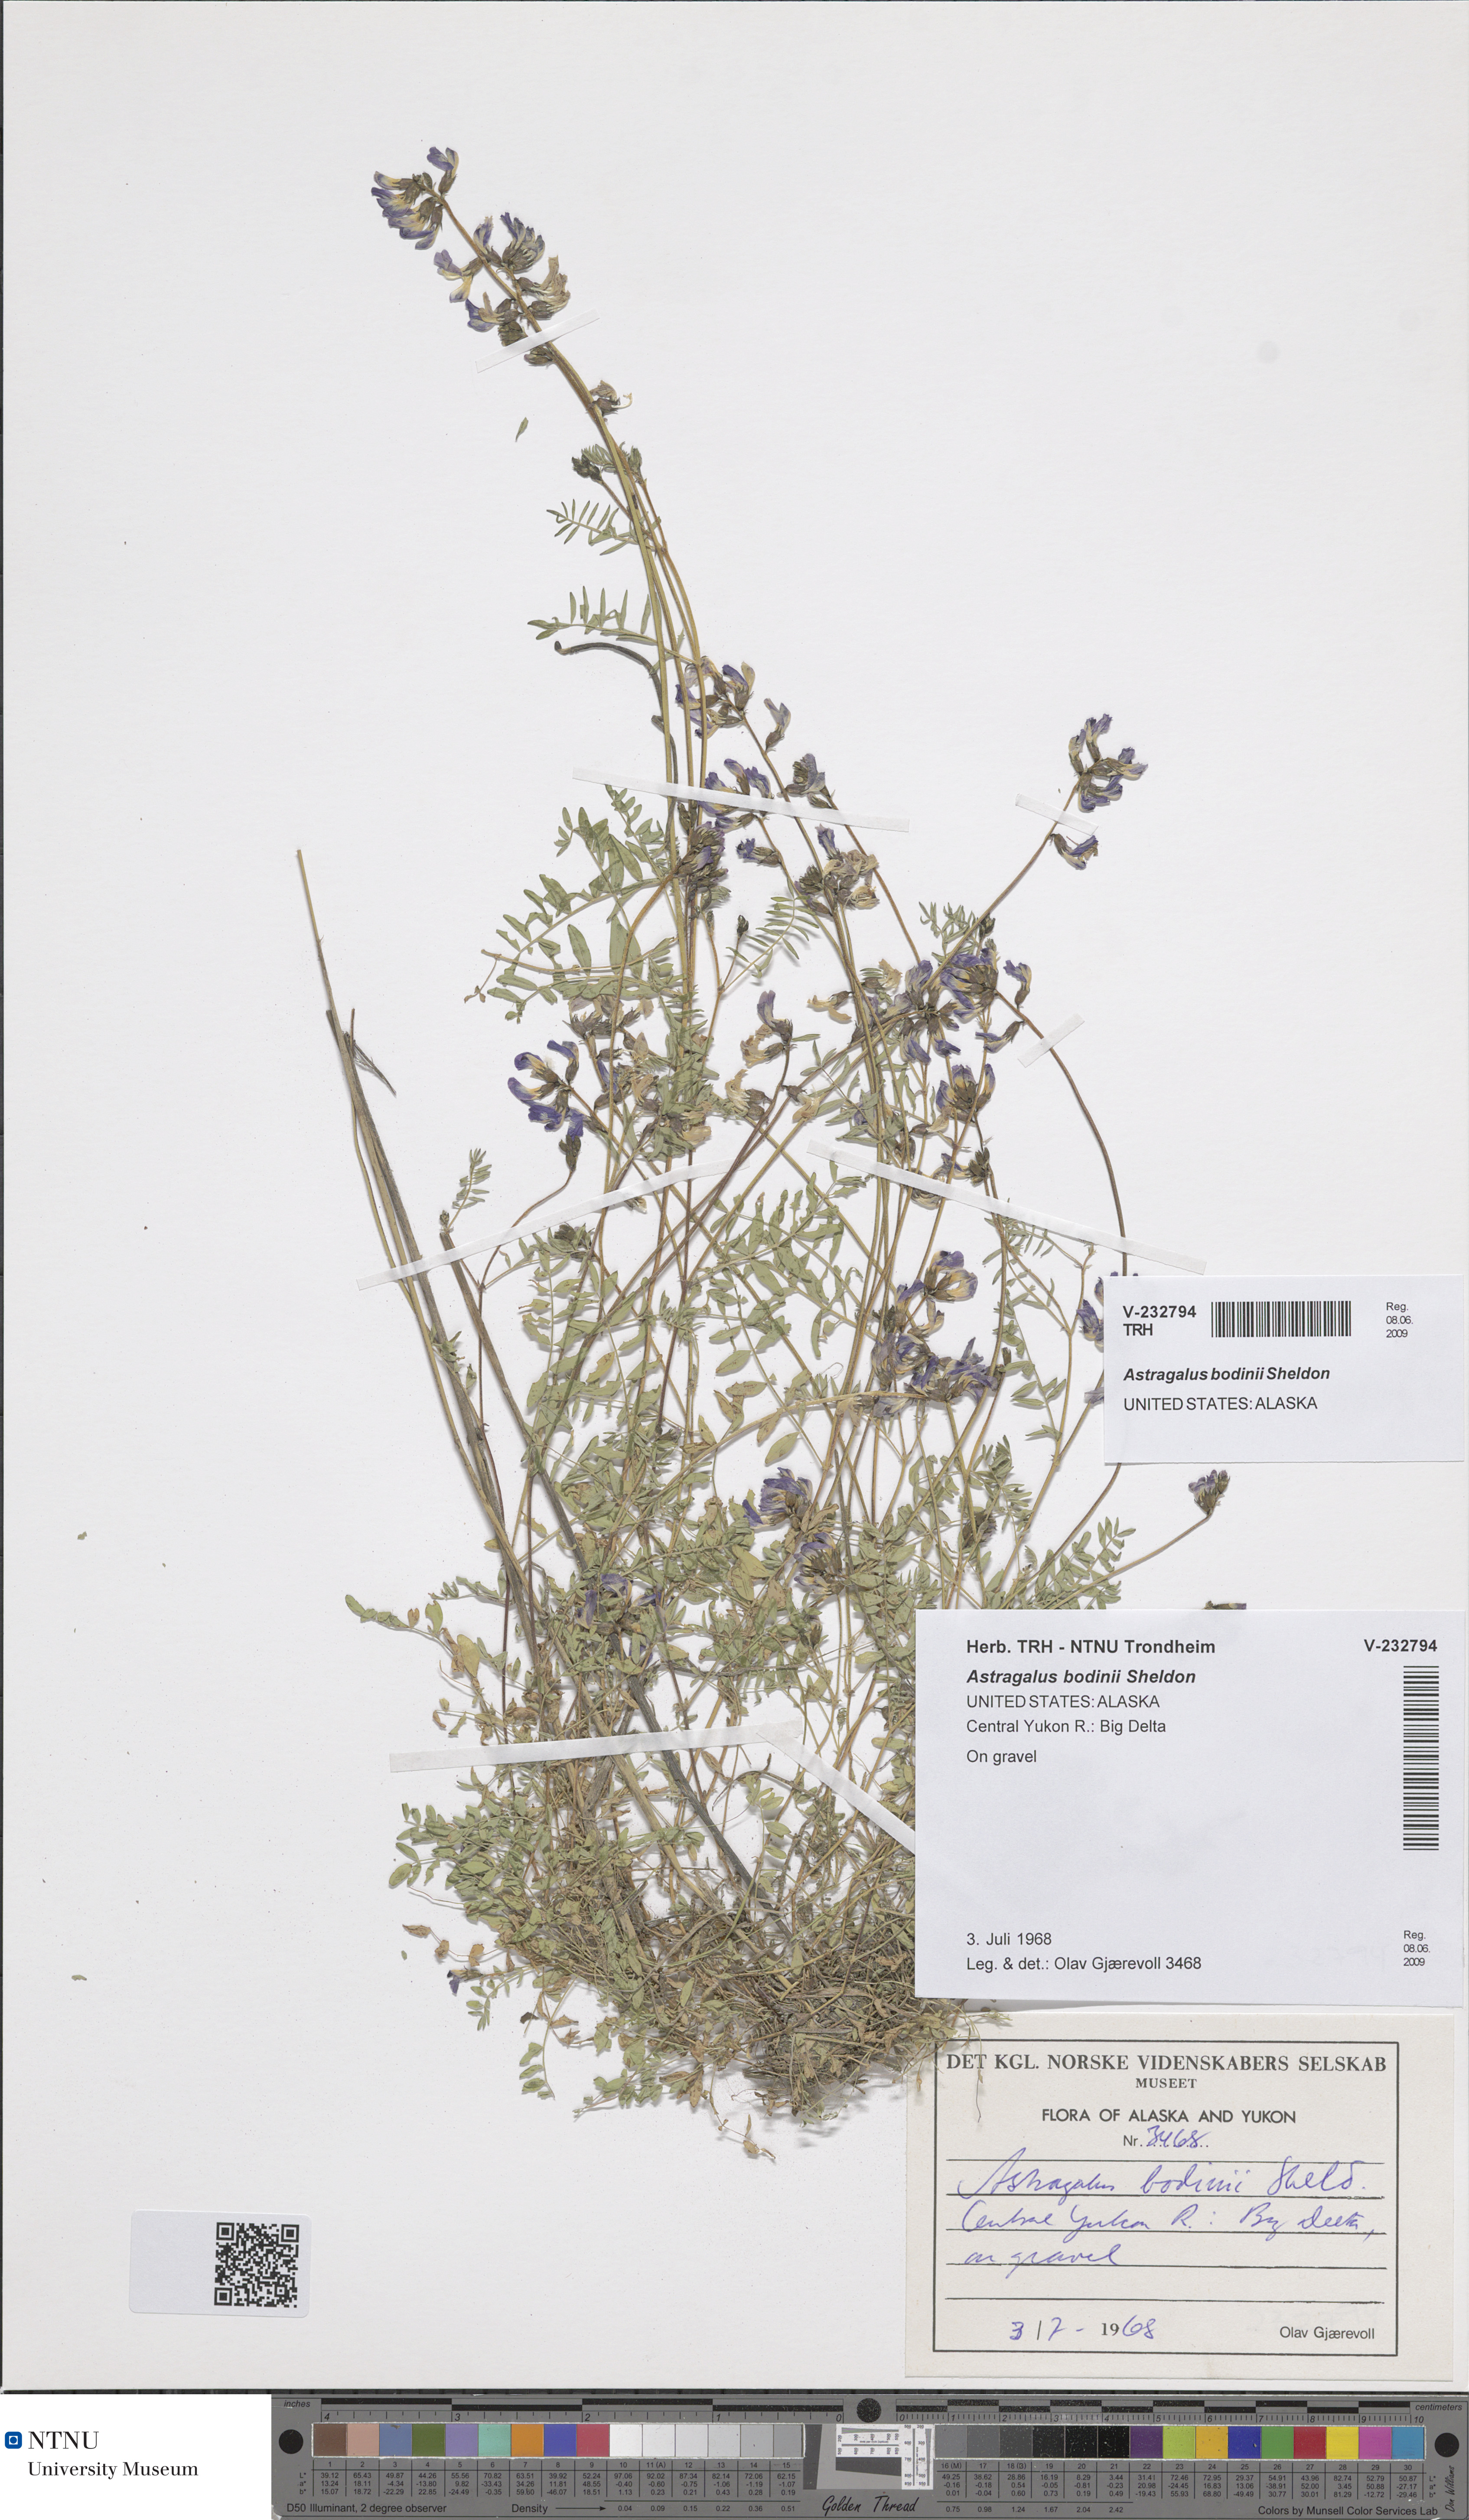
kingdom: Plantae
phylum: Tracheophyta
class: Magnoliopsida
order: Fabales
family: Fabaceae
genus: Astragalus
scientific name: Astragalus bodinii
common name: Bodin's milk-vetch
